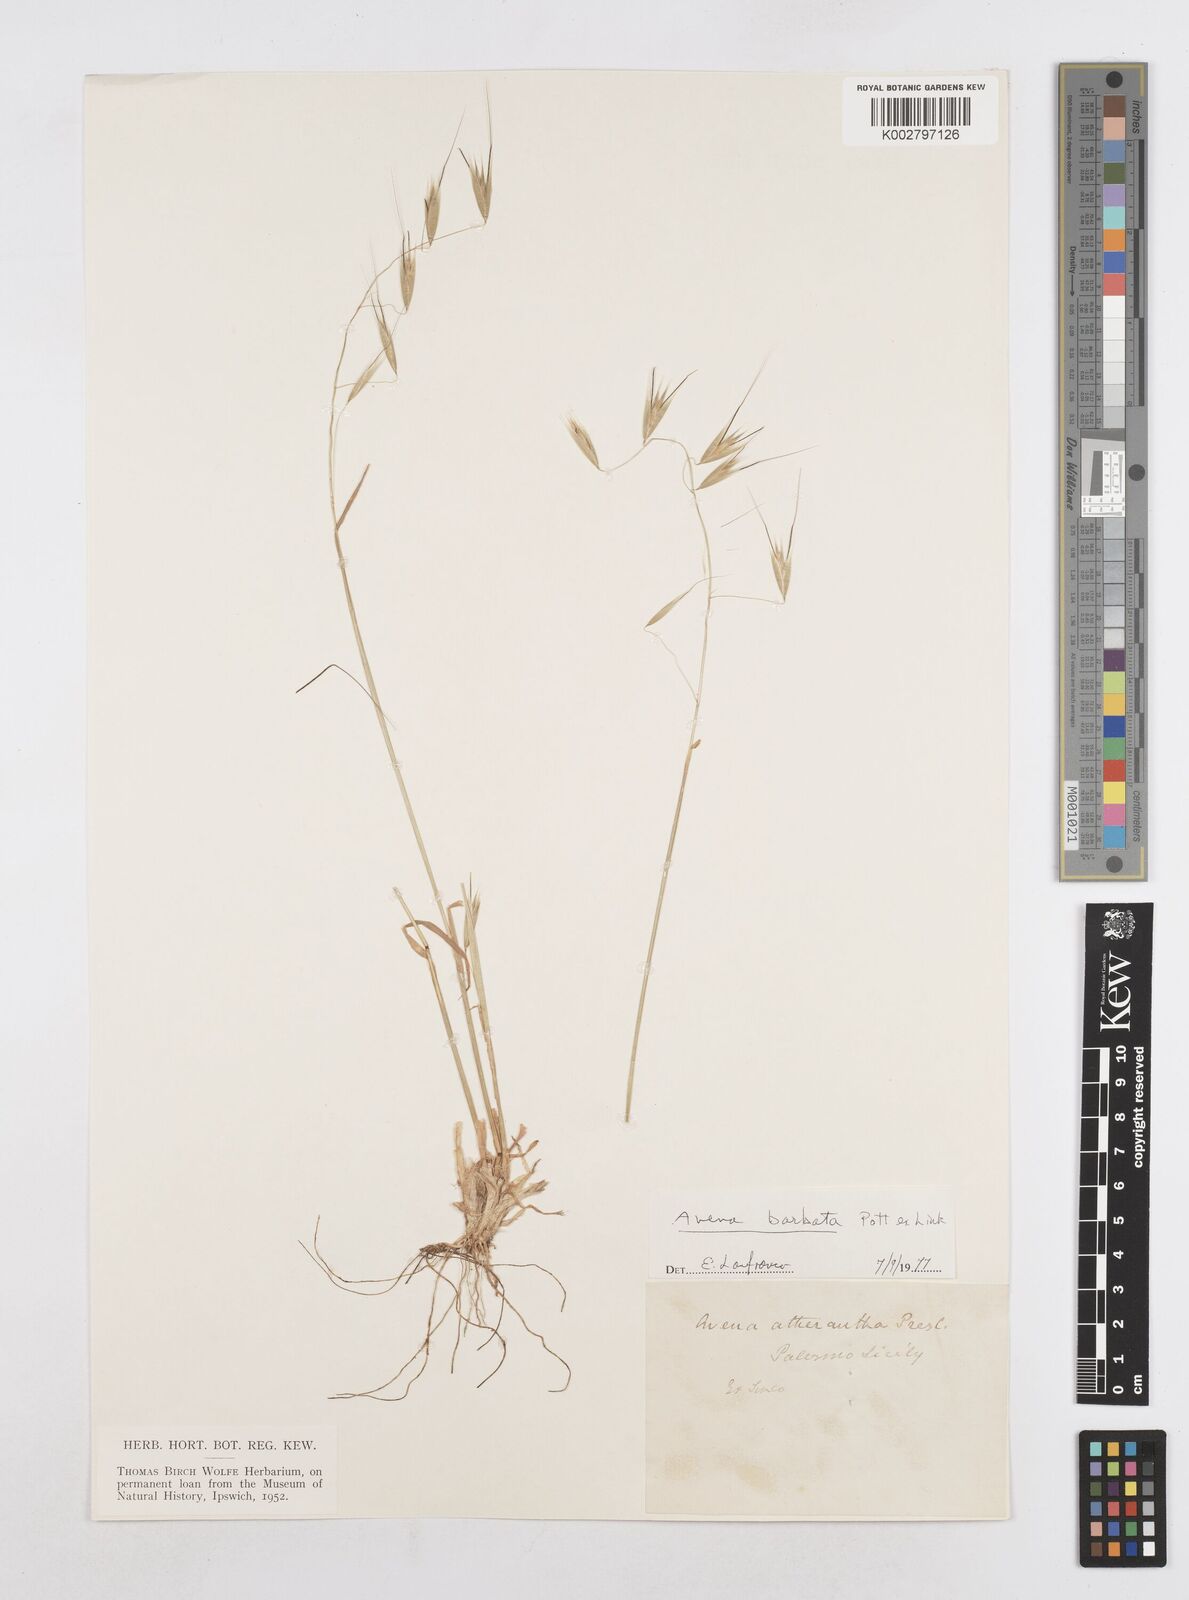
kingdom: Plantae
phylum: Tracheophyta
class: Liliopsida
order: Poales
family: Poaceae
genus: Avena
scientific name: Avena
